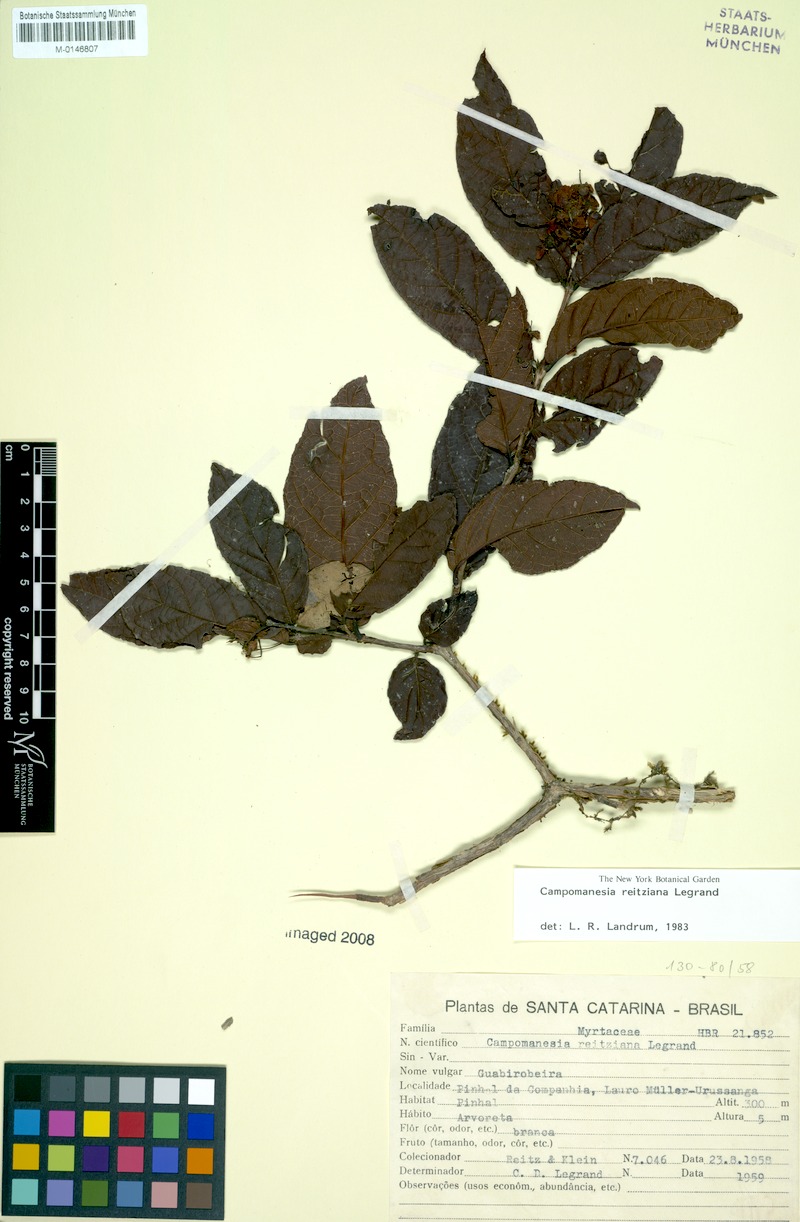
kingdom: Plantae
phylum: Tracheophyta
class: Magnoliopsida
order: Myrtales
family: Myrtaceae
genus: Campomanesia
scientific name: Campomanesia reitziana
